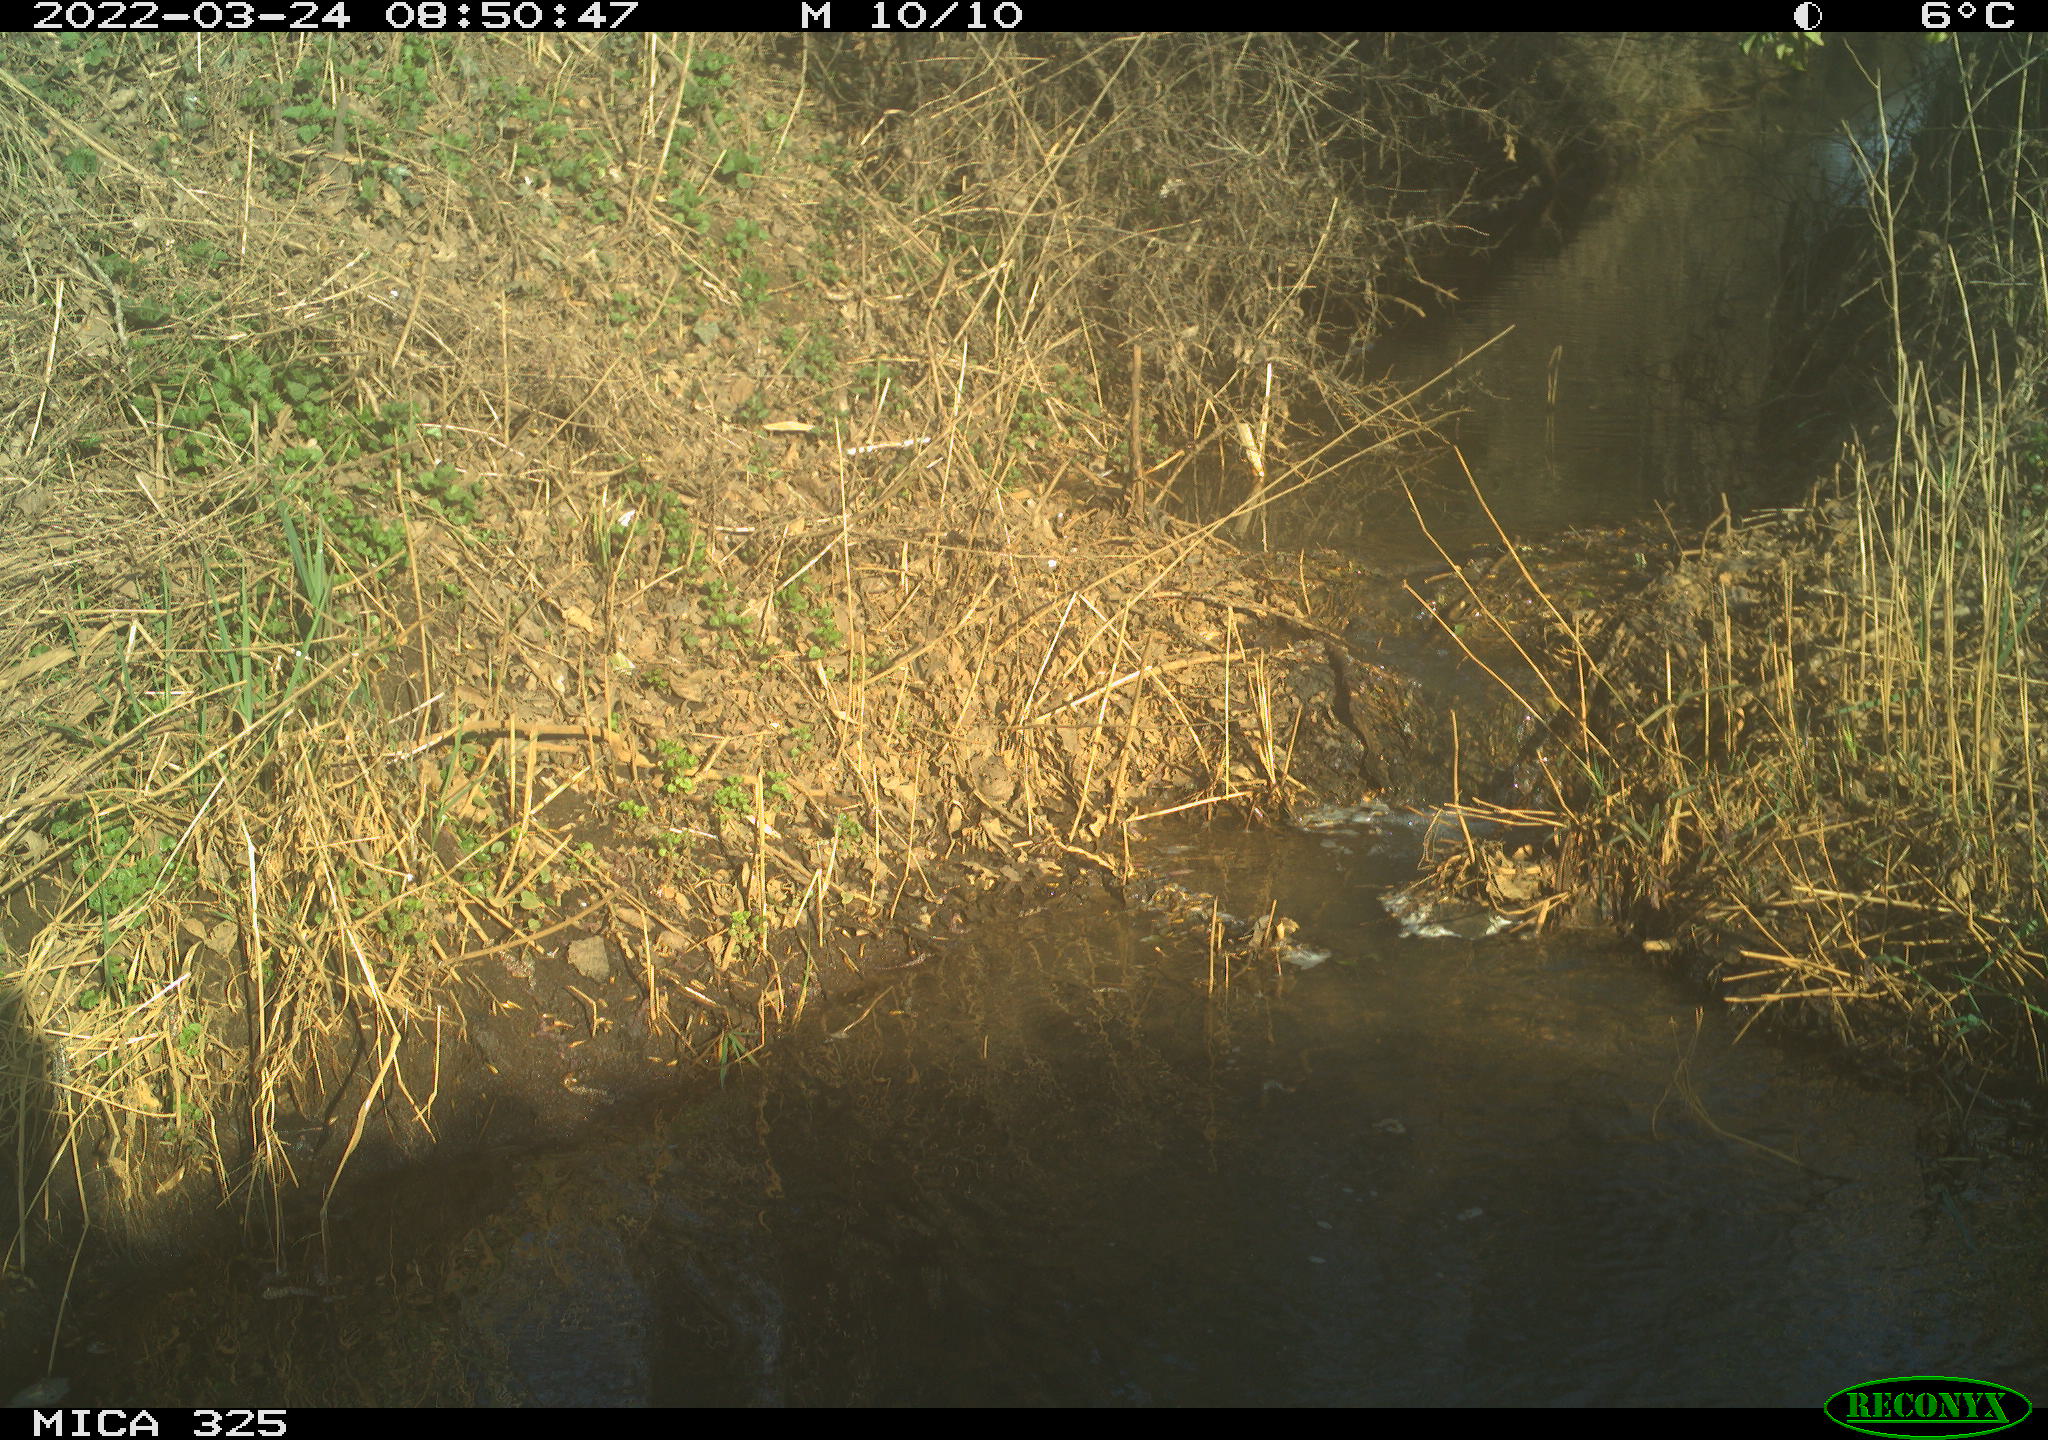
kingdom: Animalia
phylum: Chordata
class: Aves
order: Anseriformes
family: Anatidae
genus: Anas
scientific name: Anas platyrhynchos
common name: Mallard
